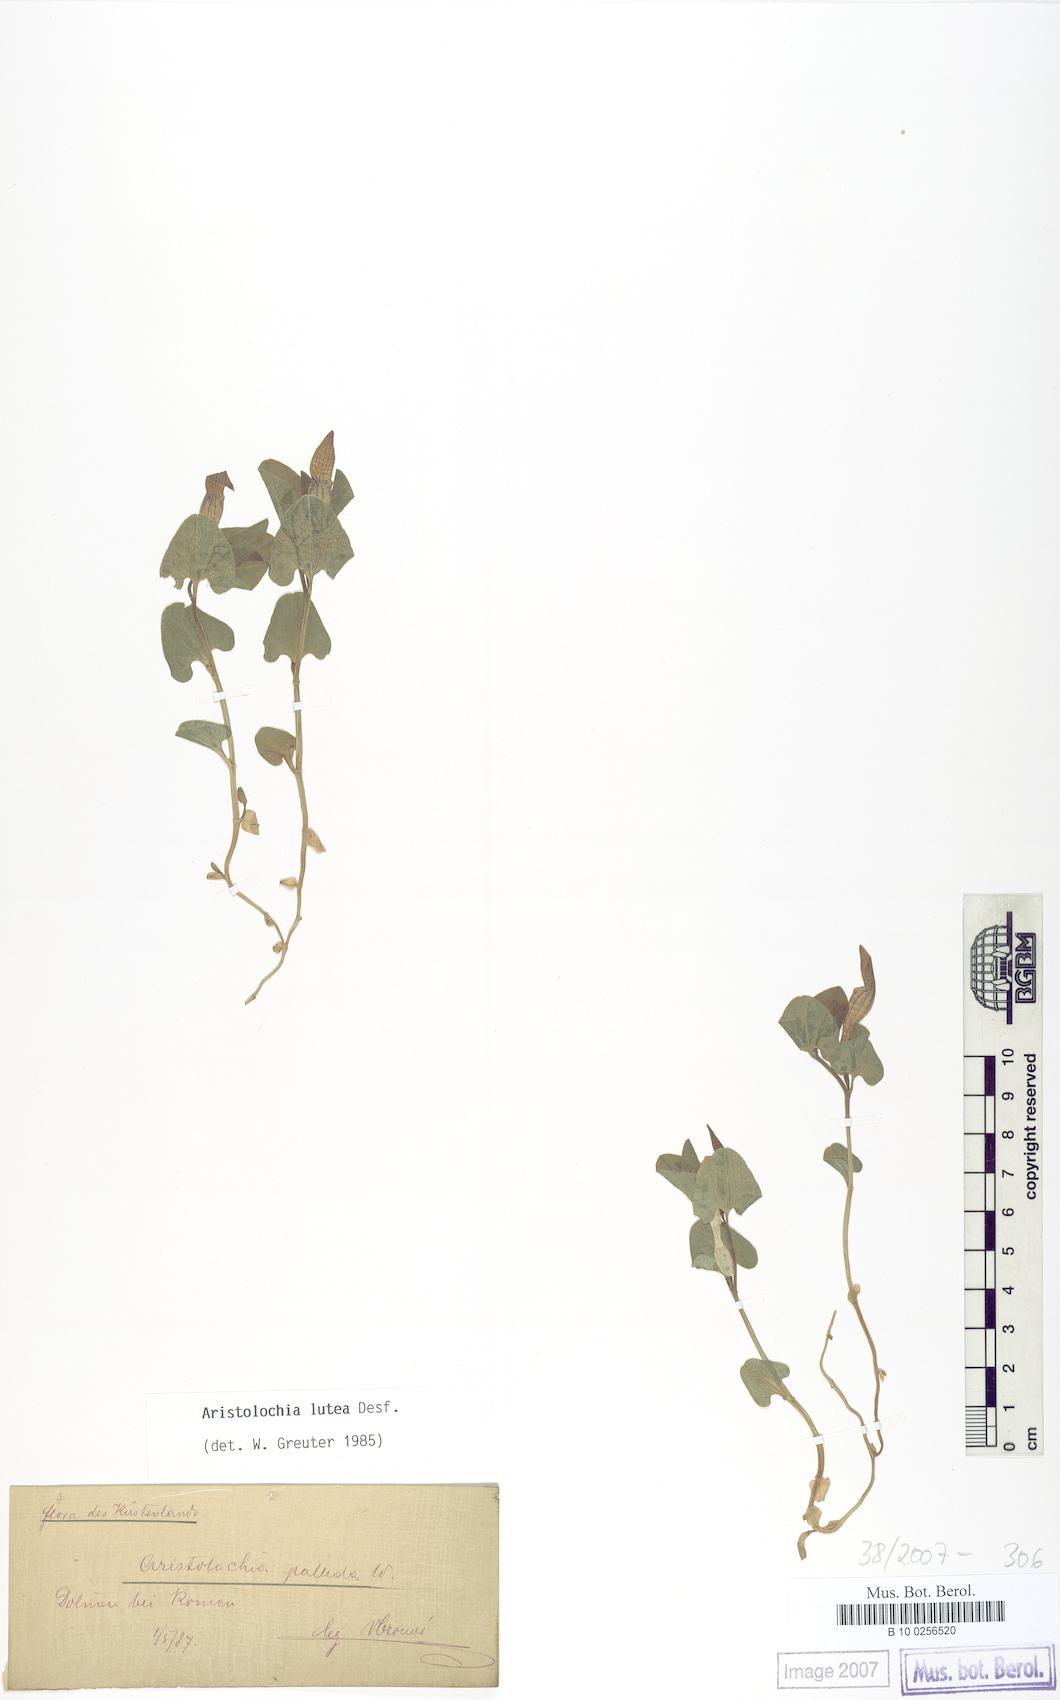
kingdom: Plantae
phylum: Tracheophyta
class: Magnoliopsida
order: Piperales
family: Aristolochiaceae
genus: Aristolochia
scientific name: Aristolochia lutea
